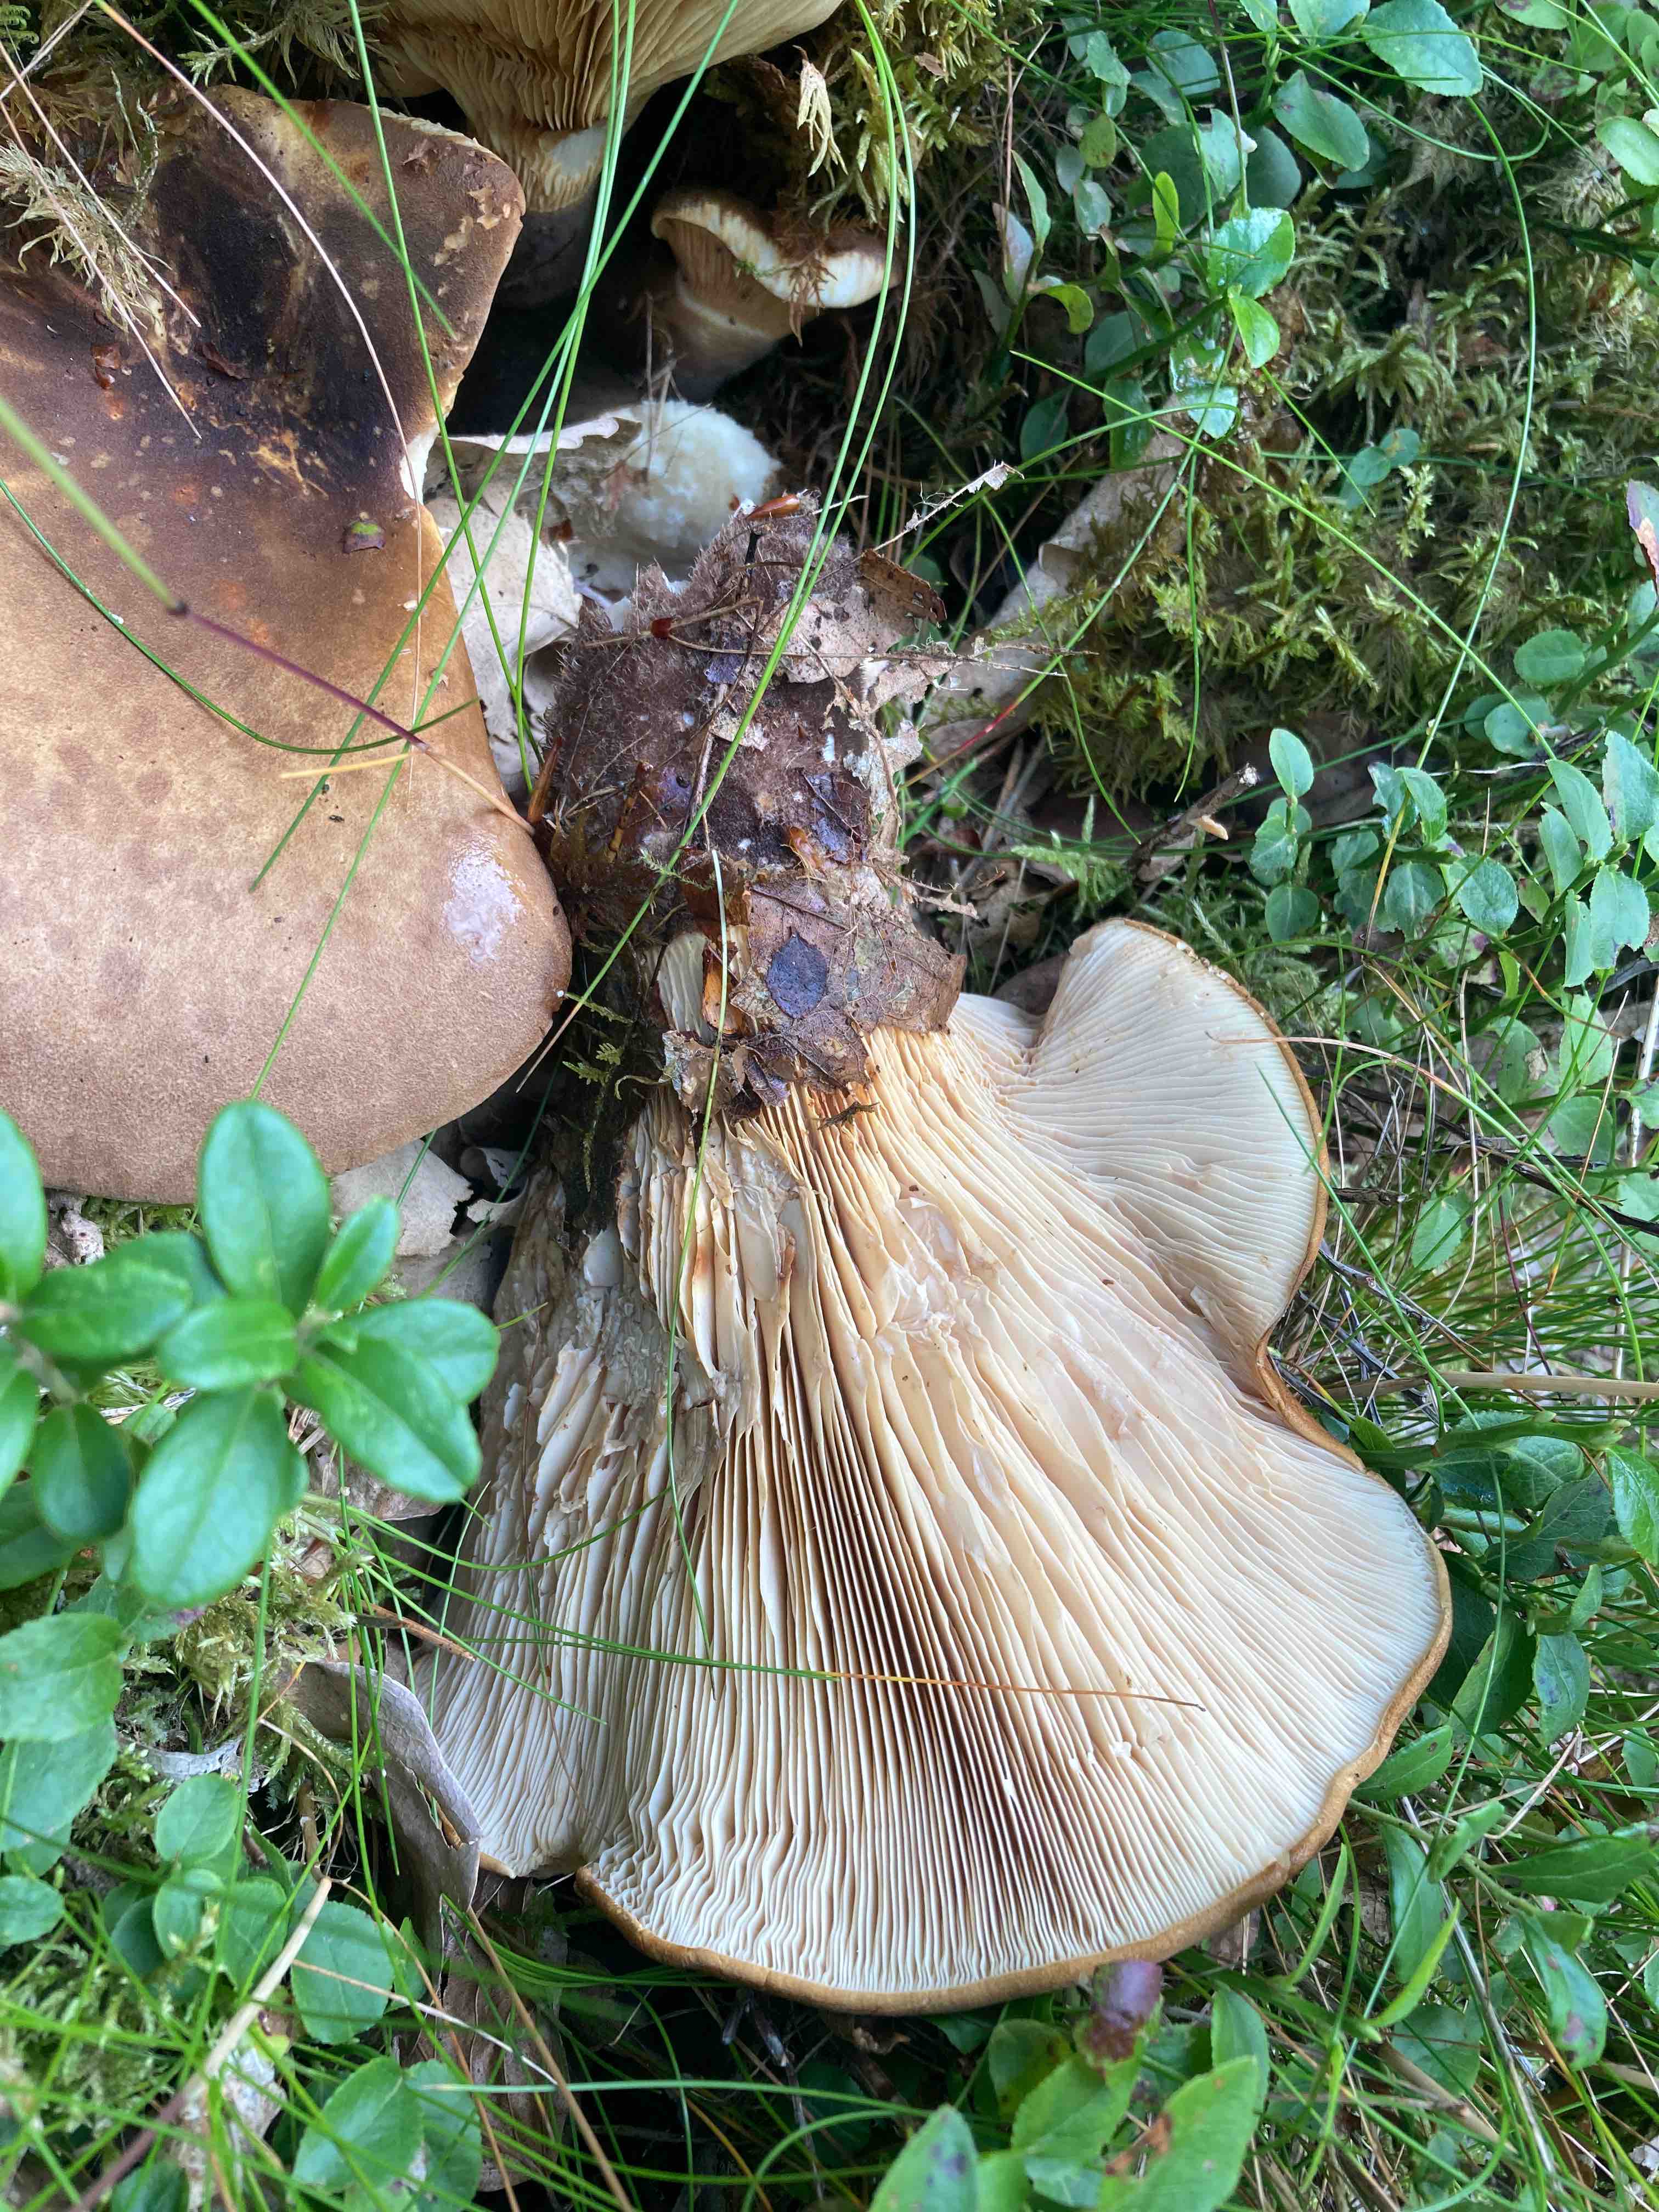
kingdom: Fungi
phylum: Basidiomycota
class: Agaricomycetes
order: Boletales
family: Tapinellaceae
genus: Tapinella
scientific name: Tapinella atrotomentosa
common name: sortfiltet viftesvamp
